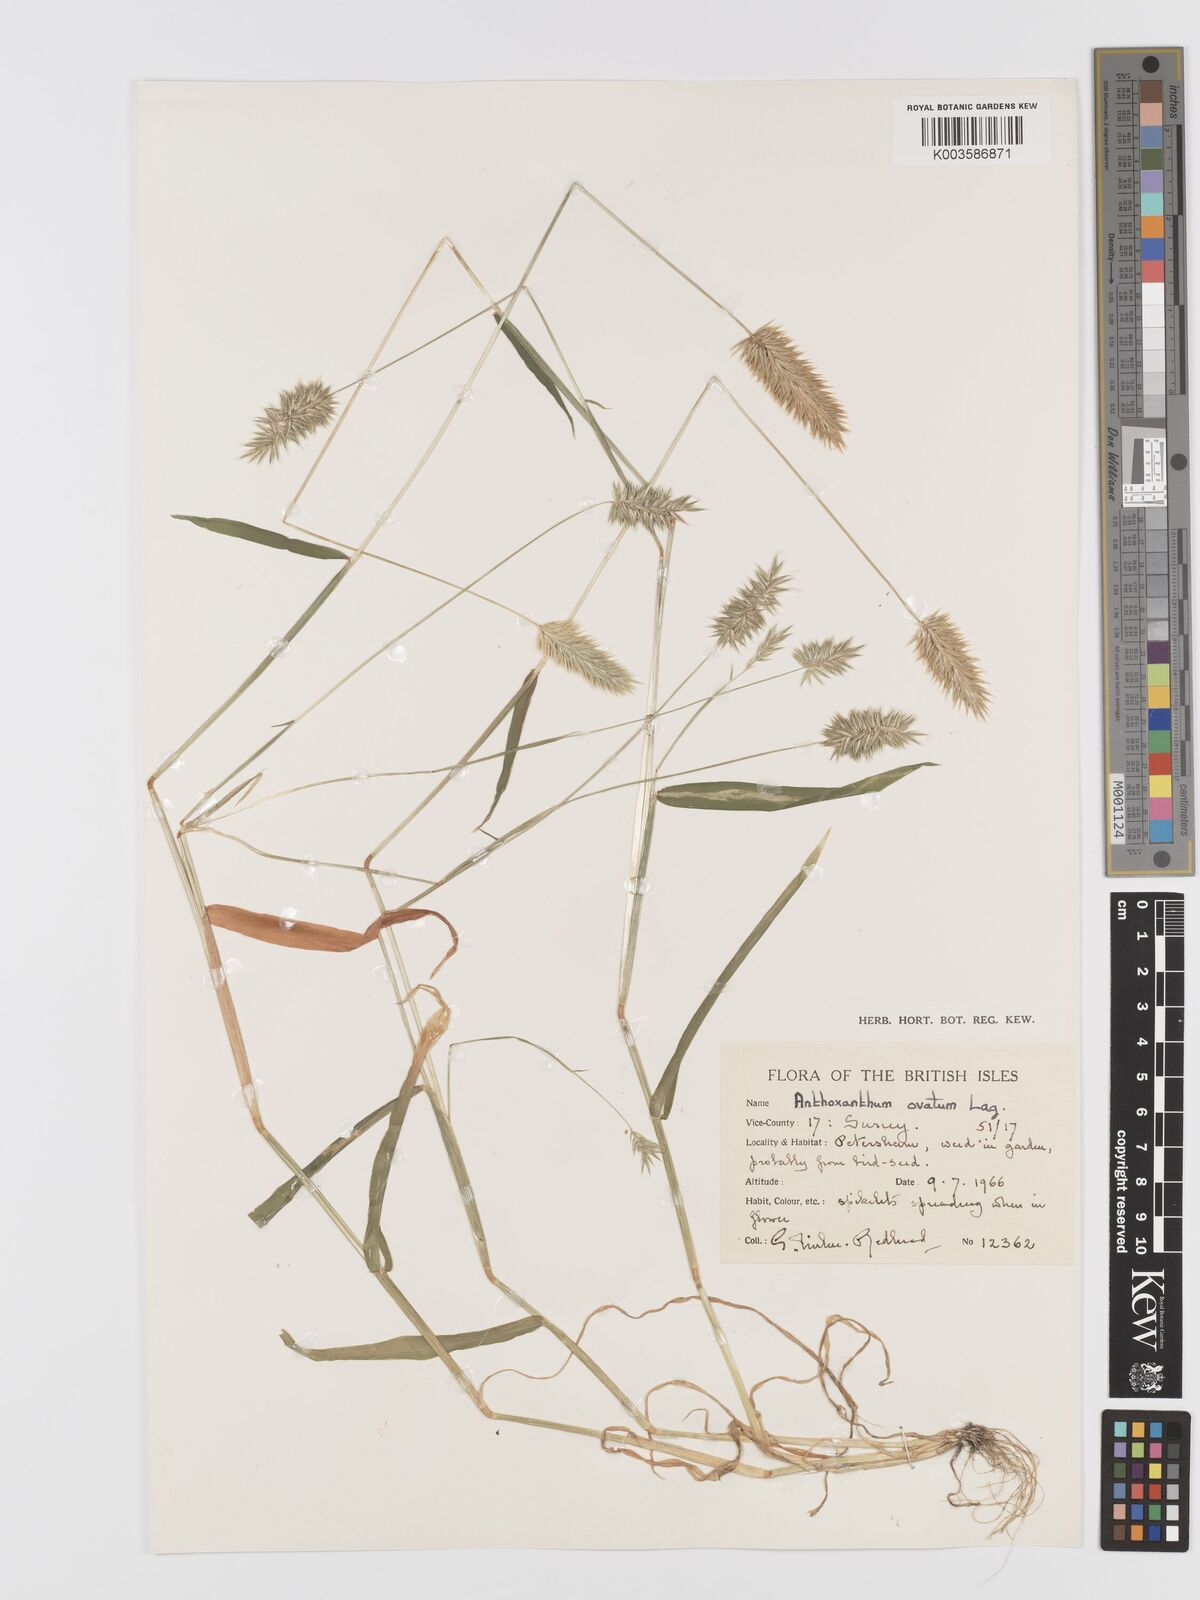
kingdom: Plantae
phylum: Tracheophyta
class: Liliopsida
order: Poales
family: Poaceae
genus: Anthoxanthum
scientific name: Anthoxanthum ovatum
